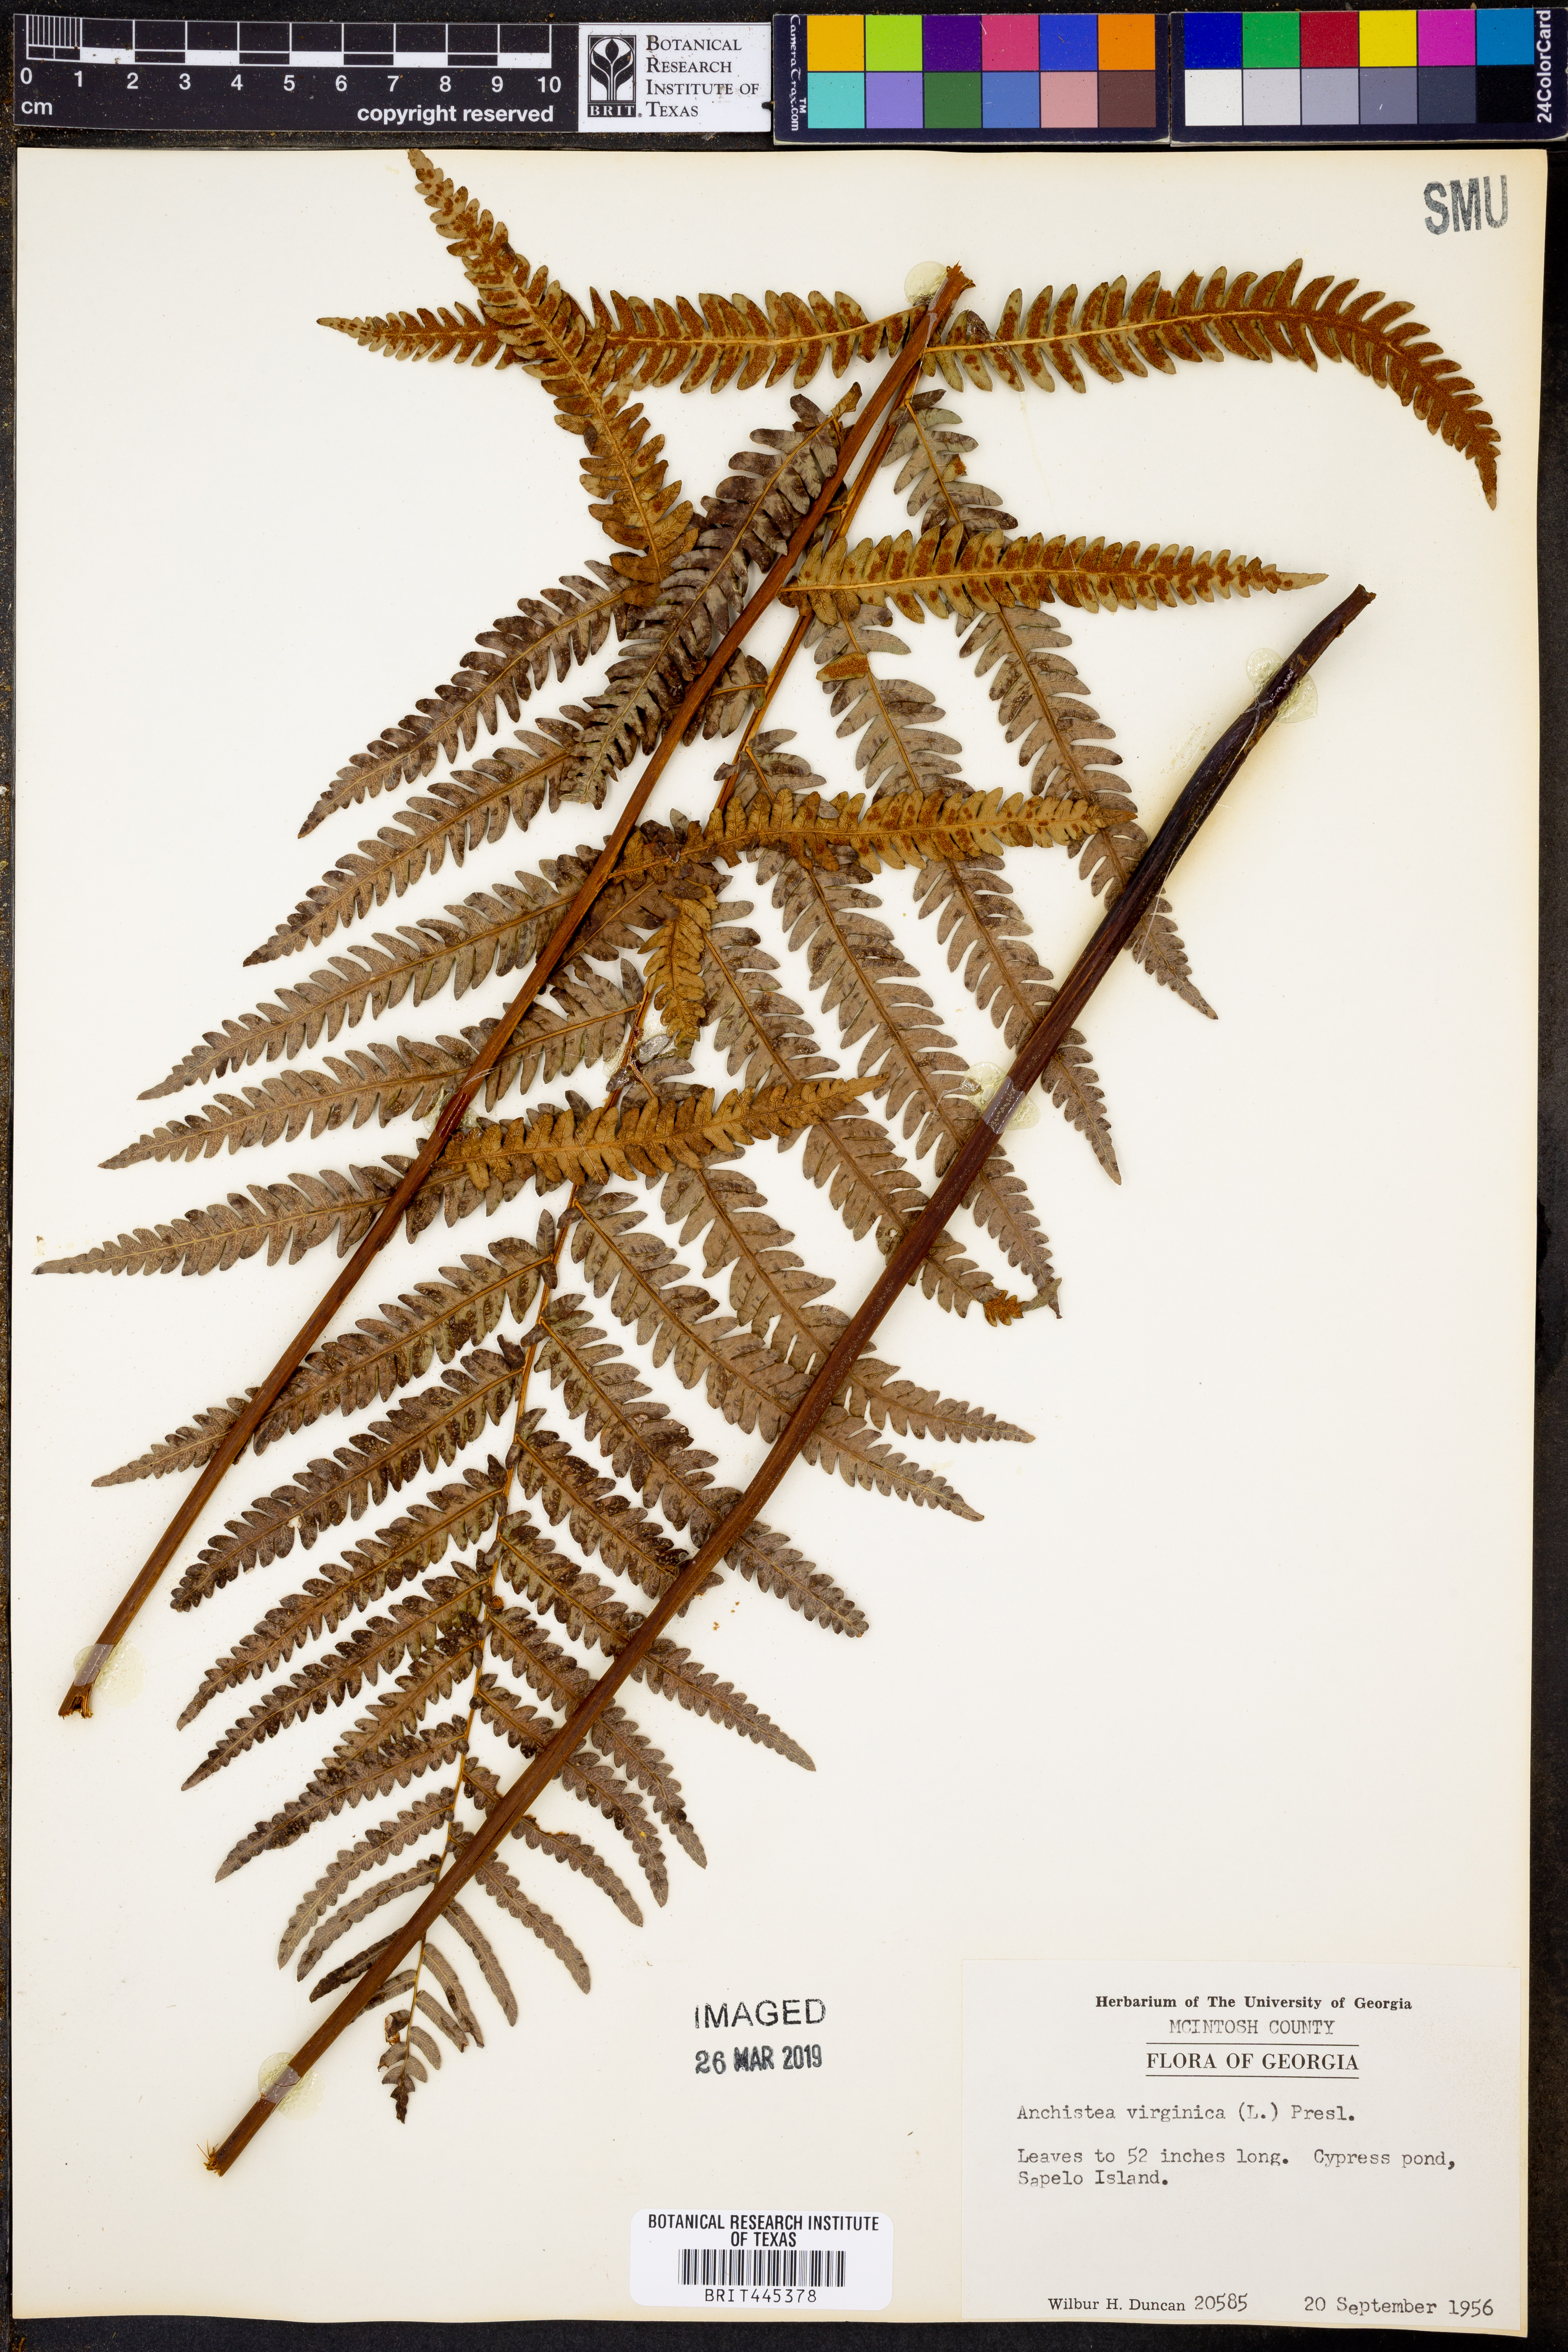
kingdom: Plantae
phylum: Tracheophyta
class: Polypodiopsida
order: Polypodiales
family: Blechnaceae
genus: Anchistea
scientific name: Anchistea virginica
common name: Virginia chain fern
